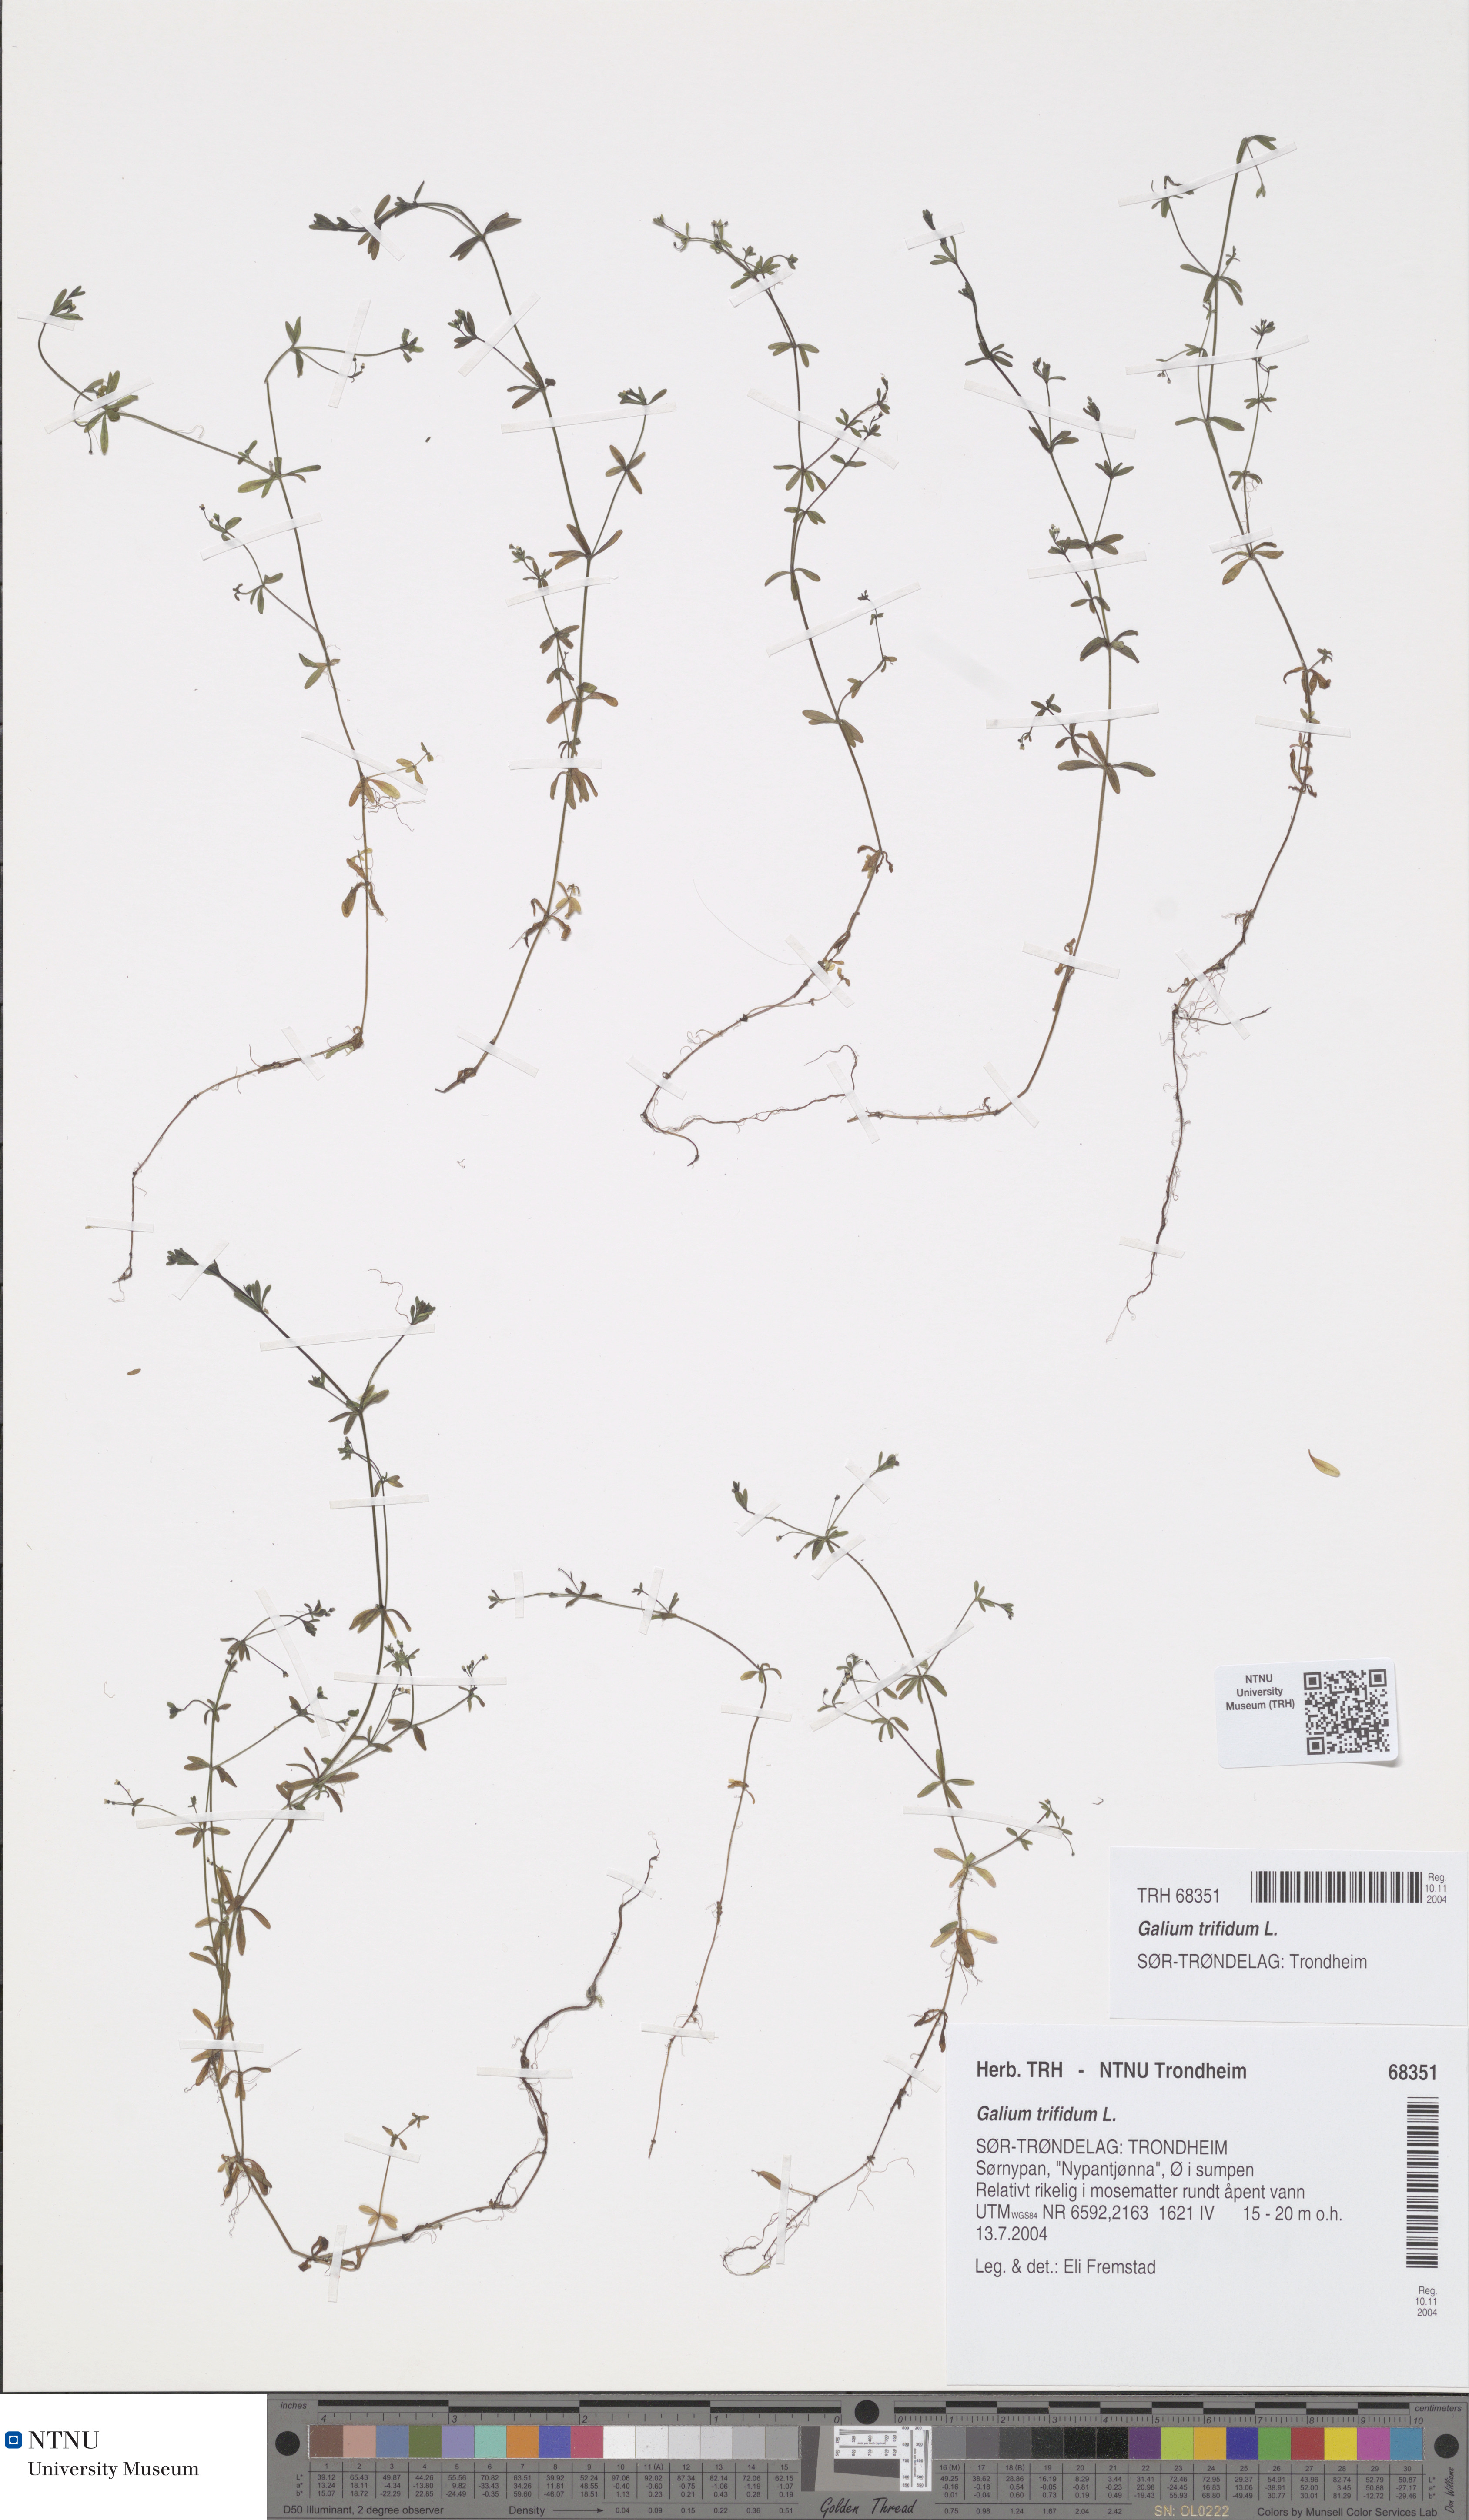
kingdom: Plantae
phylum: Tracheophyta
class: Magnoliopsida
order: Gentianales
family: Rubiaceae
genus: Galium
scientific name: Galium trifidum
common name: Small bedstraw
